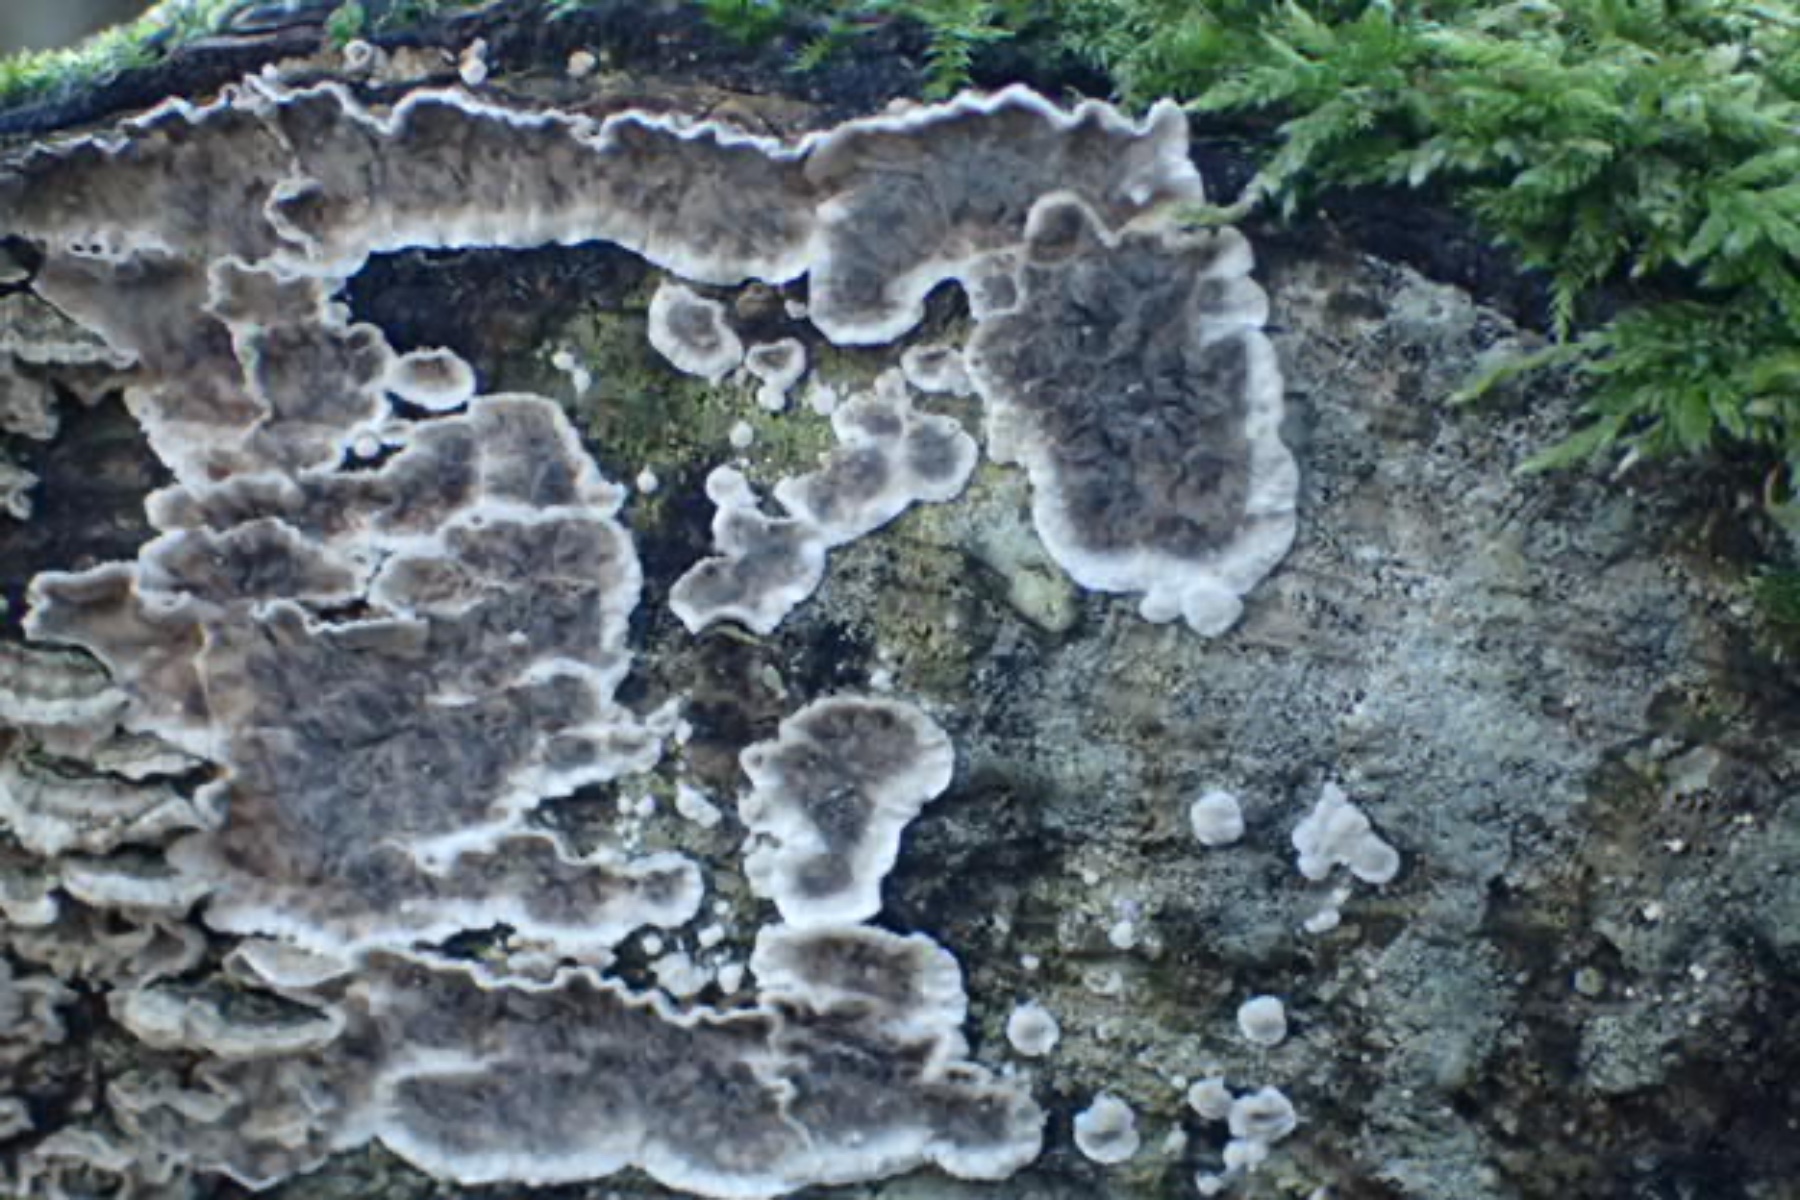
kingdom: Fungi
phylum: Basidiomycota
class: Agaricomycetes
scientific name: Agaricomycetes
